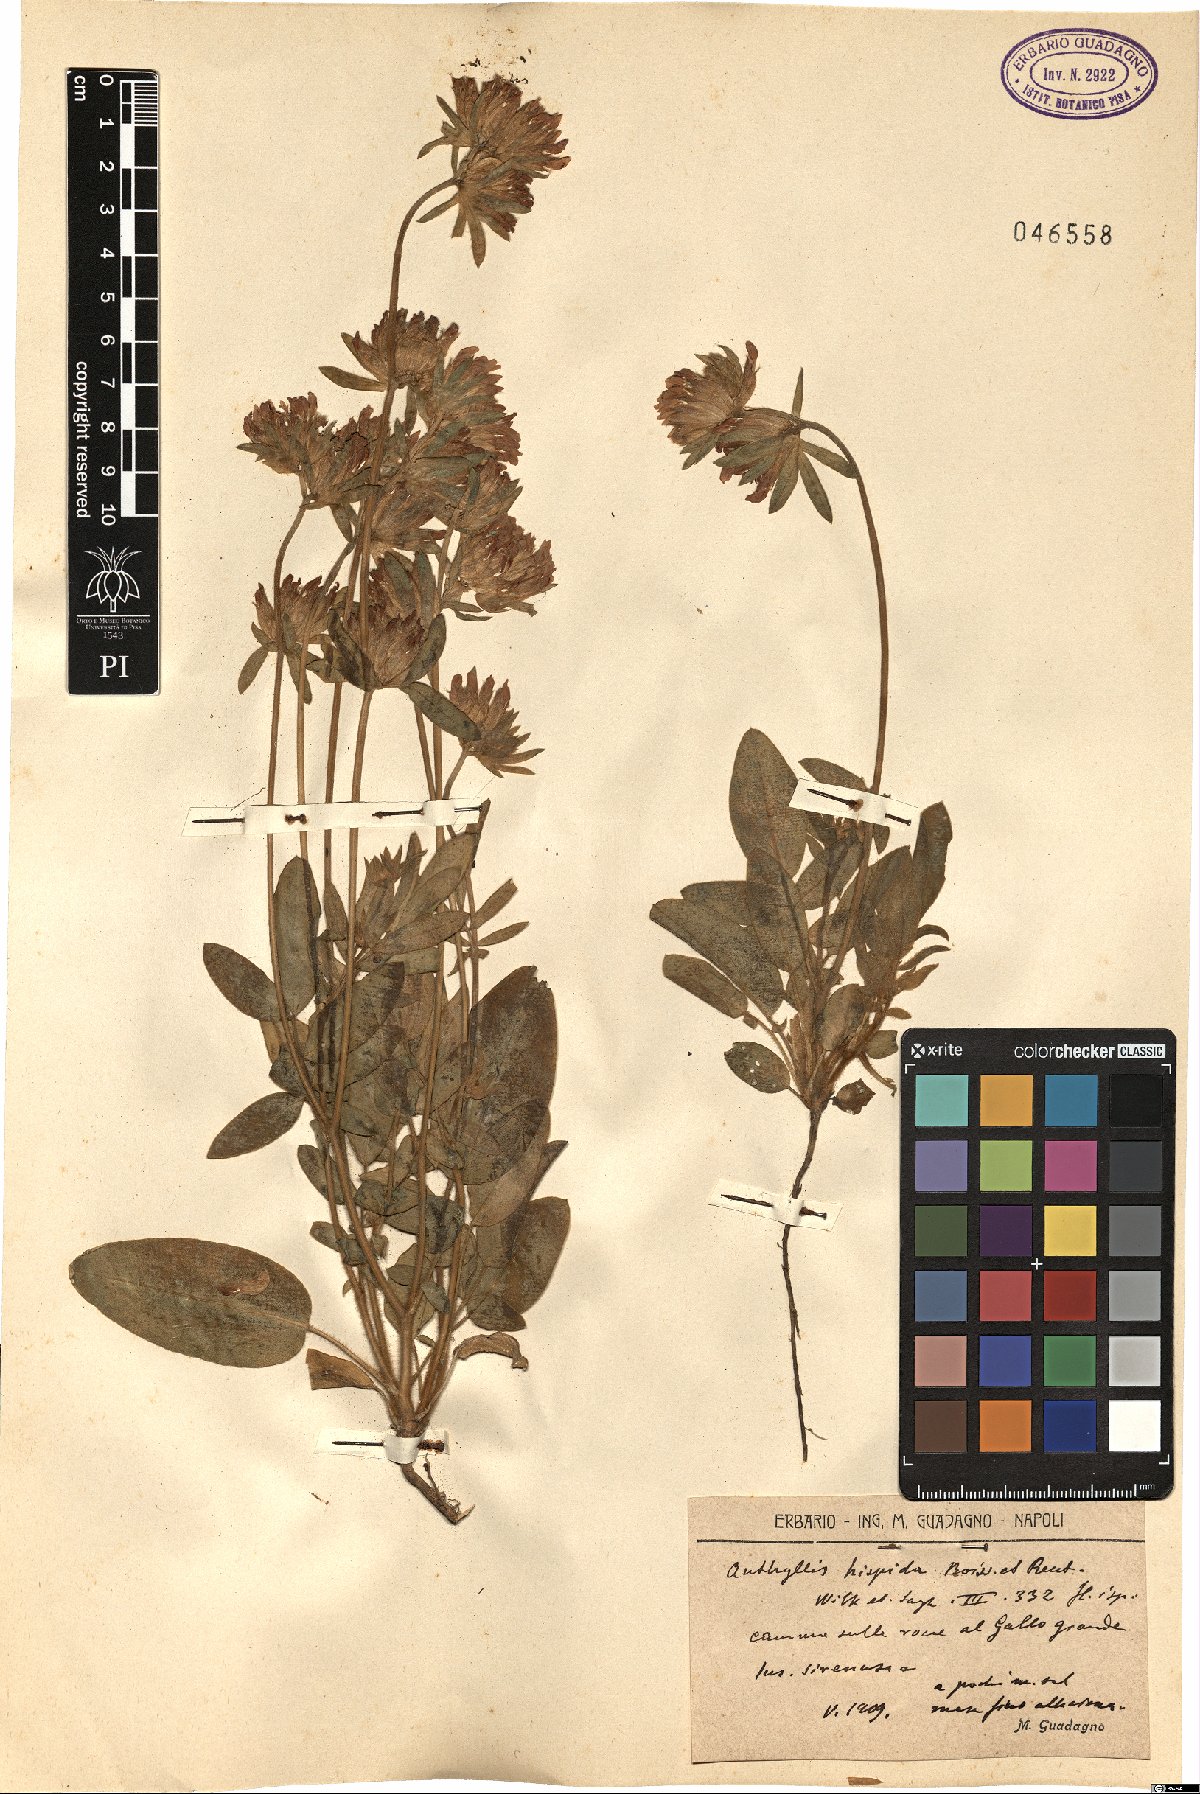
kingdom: Plantae
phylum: Tracheophyta
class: Magnoliopsida
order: Fabales
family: Fabaceae
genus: Anthyllis
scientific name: Anthyllis vulneraria
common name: Kidney vetch
